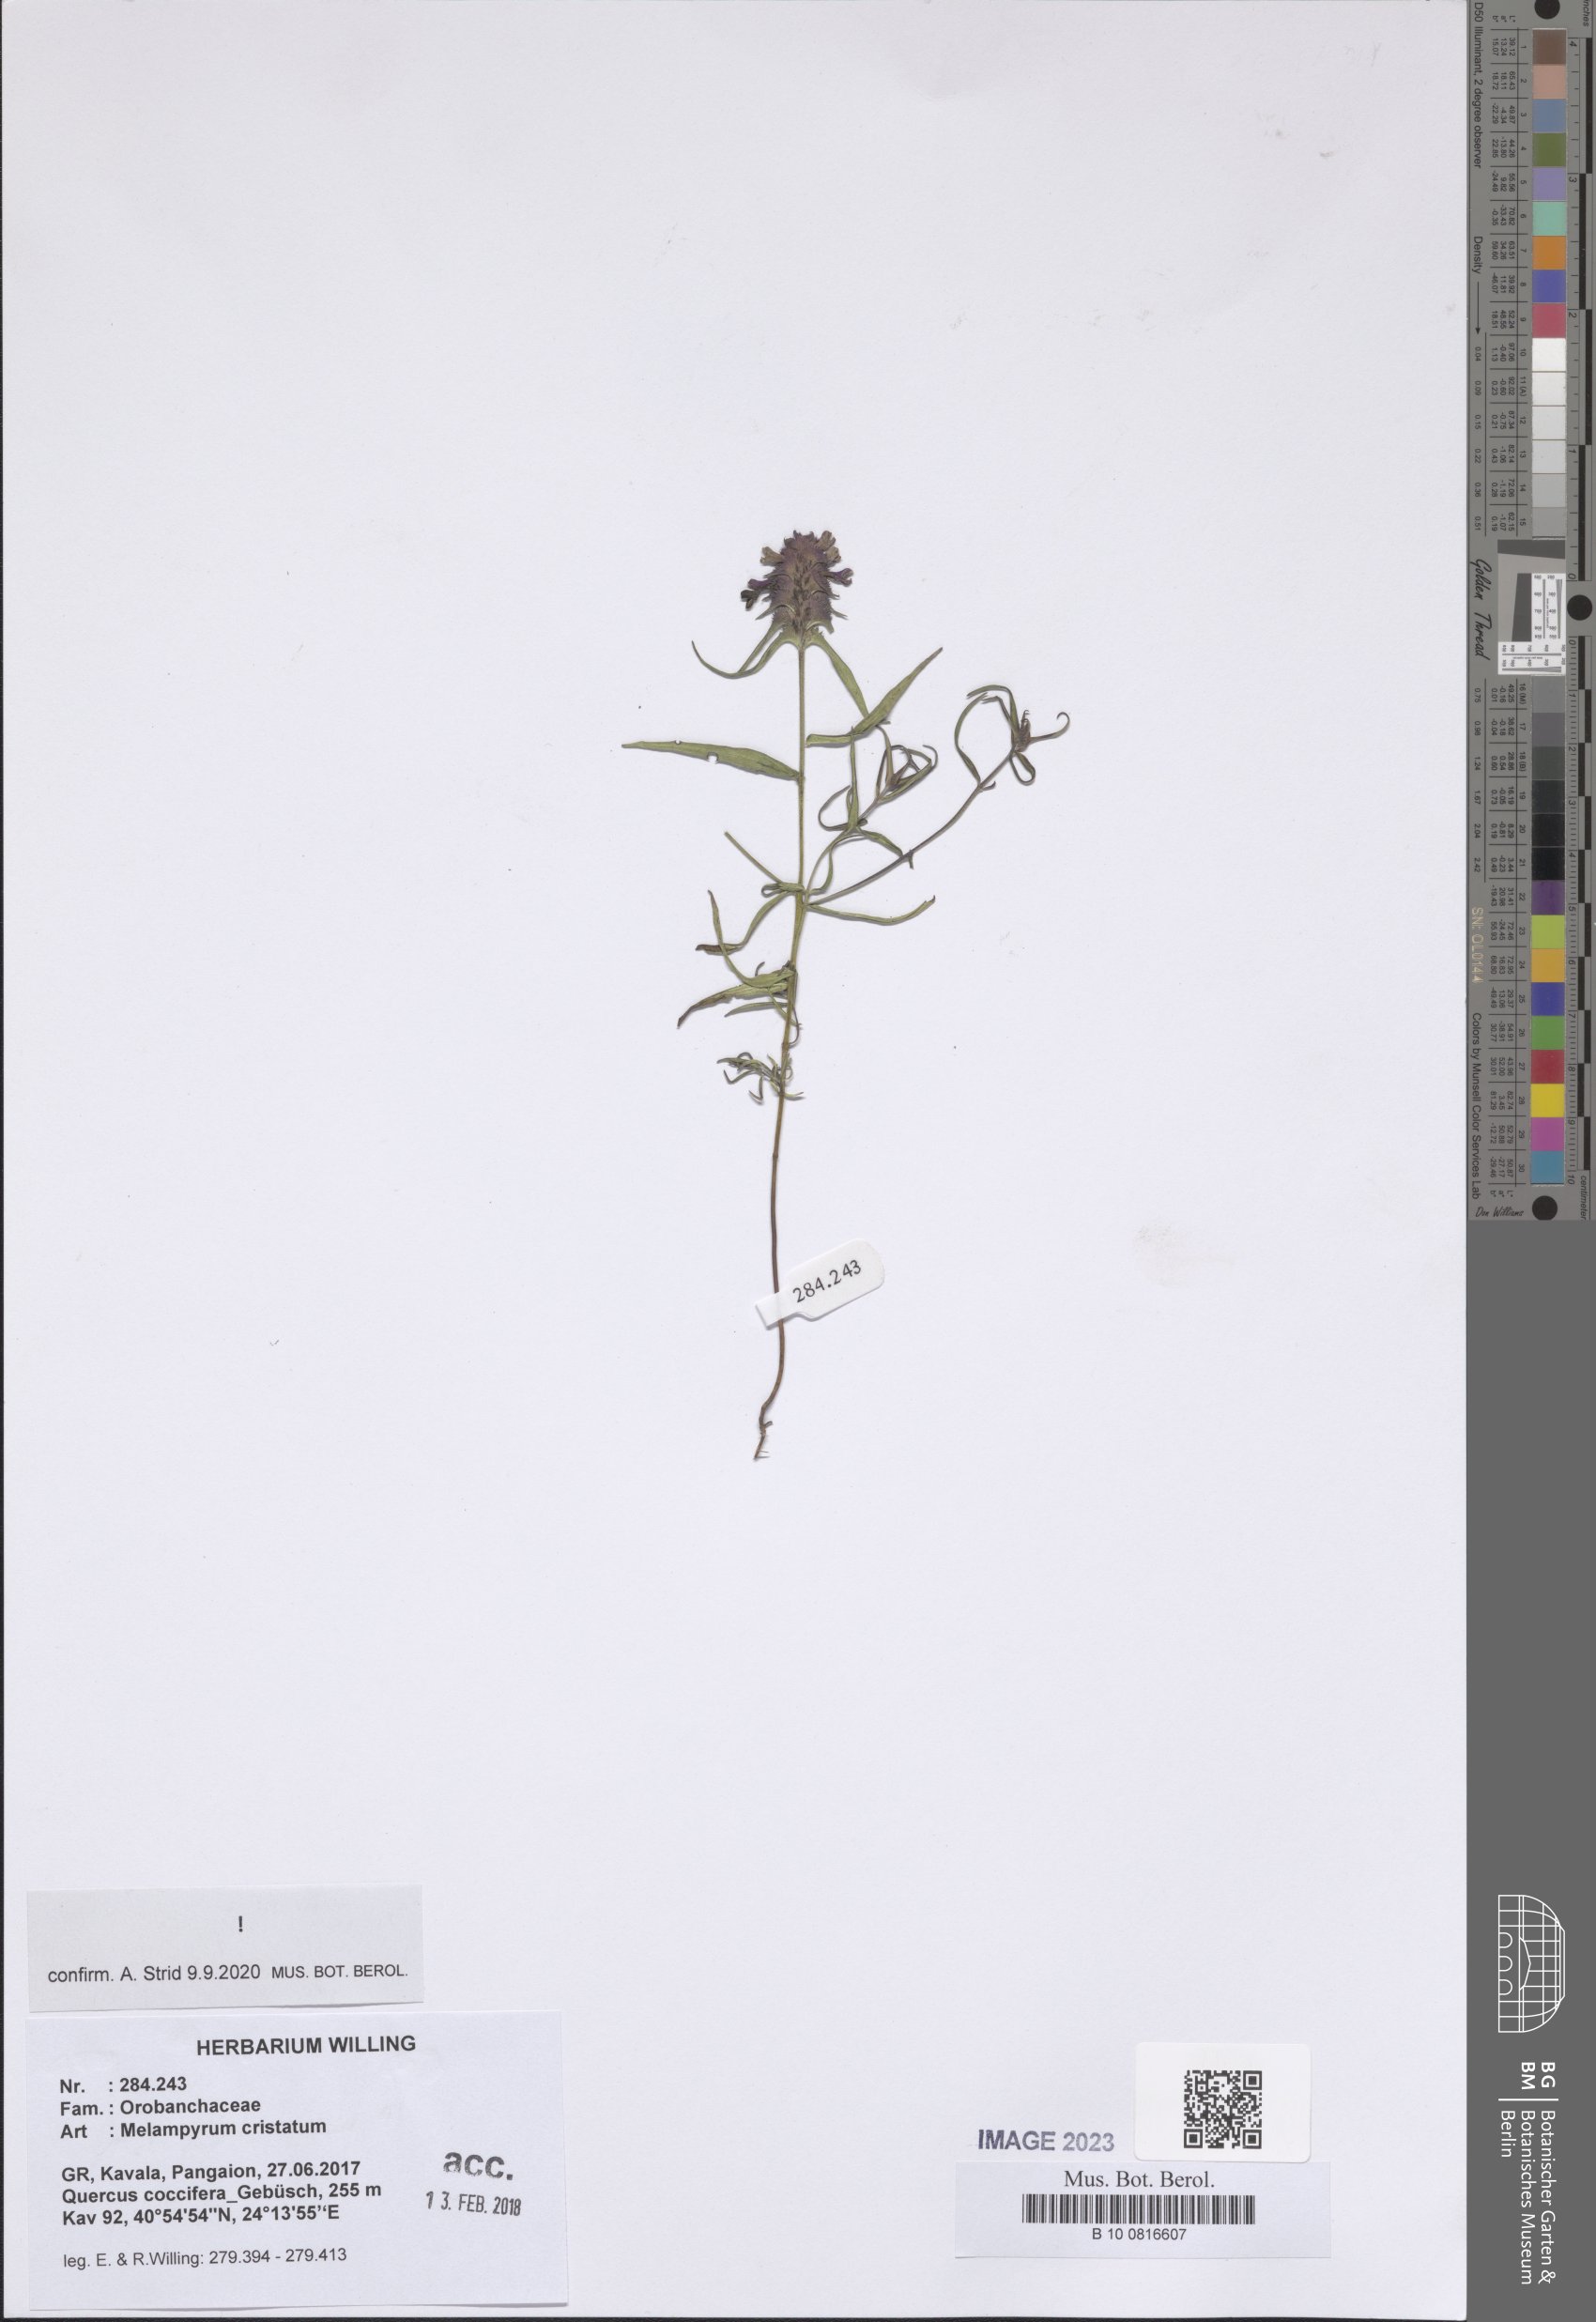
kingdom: Plantae
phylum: Tracheophyta
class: Magnoliopsida
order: Lamiales
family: Orobanchaceae
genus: Melampyrum
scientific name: Melampyrum cristatum
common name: Crested cow-wheat
